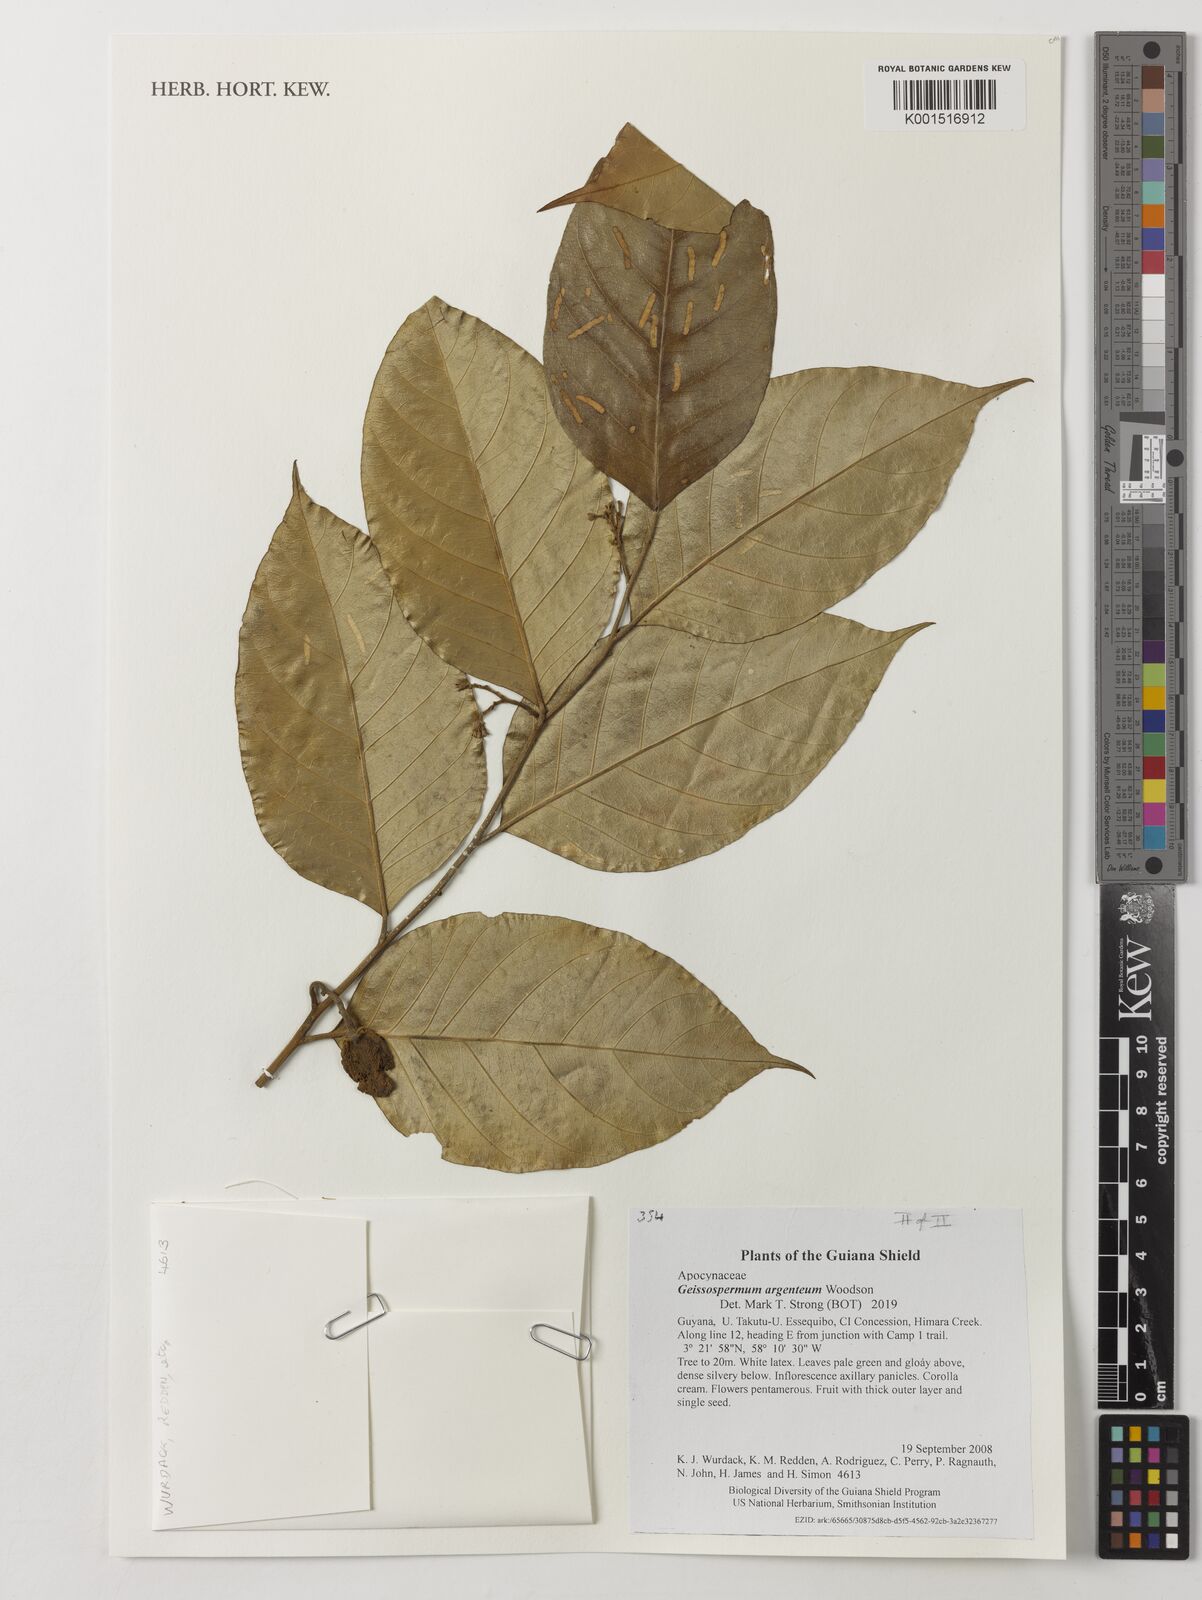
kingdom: Plantae
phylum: Tracheophyta
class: Magnoliopsida
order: Gentianales
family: Apocynaceae
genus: Geissospermum
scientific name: Geissospermum argenteum
